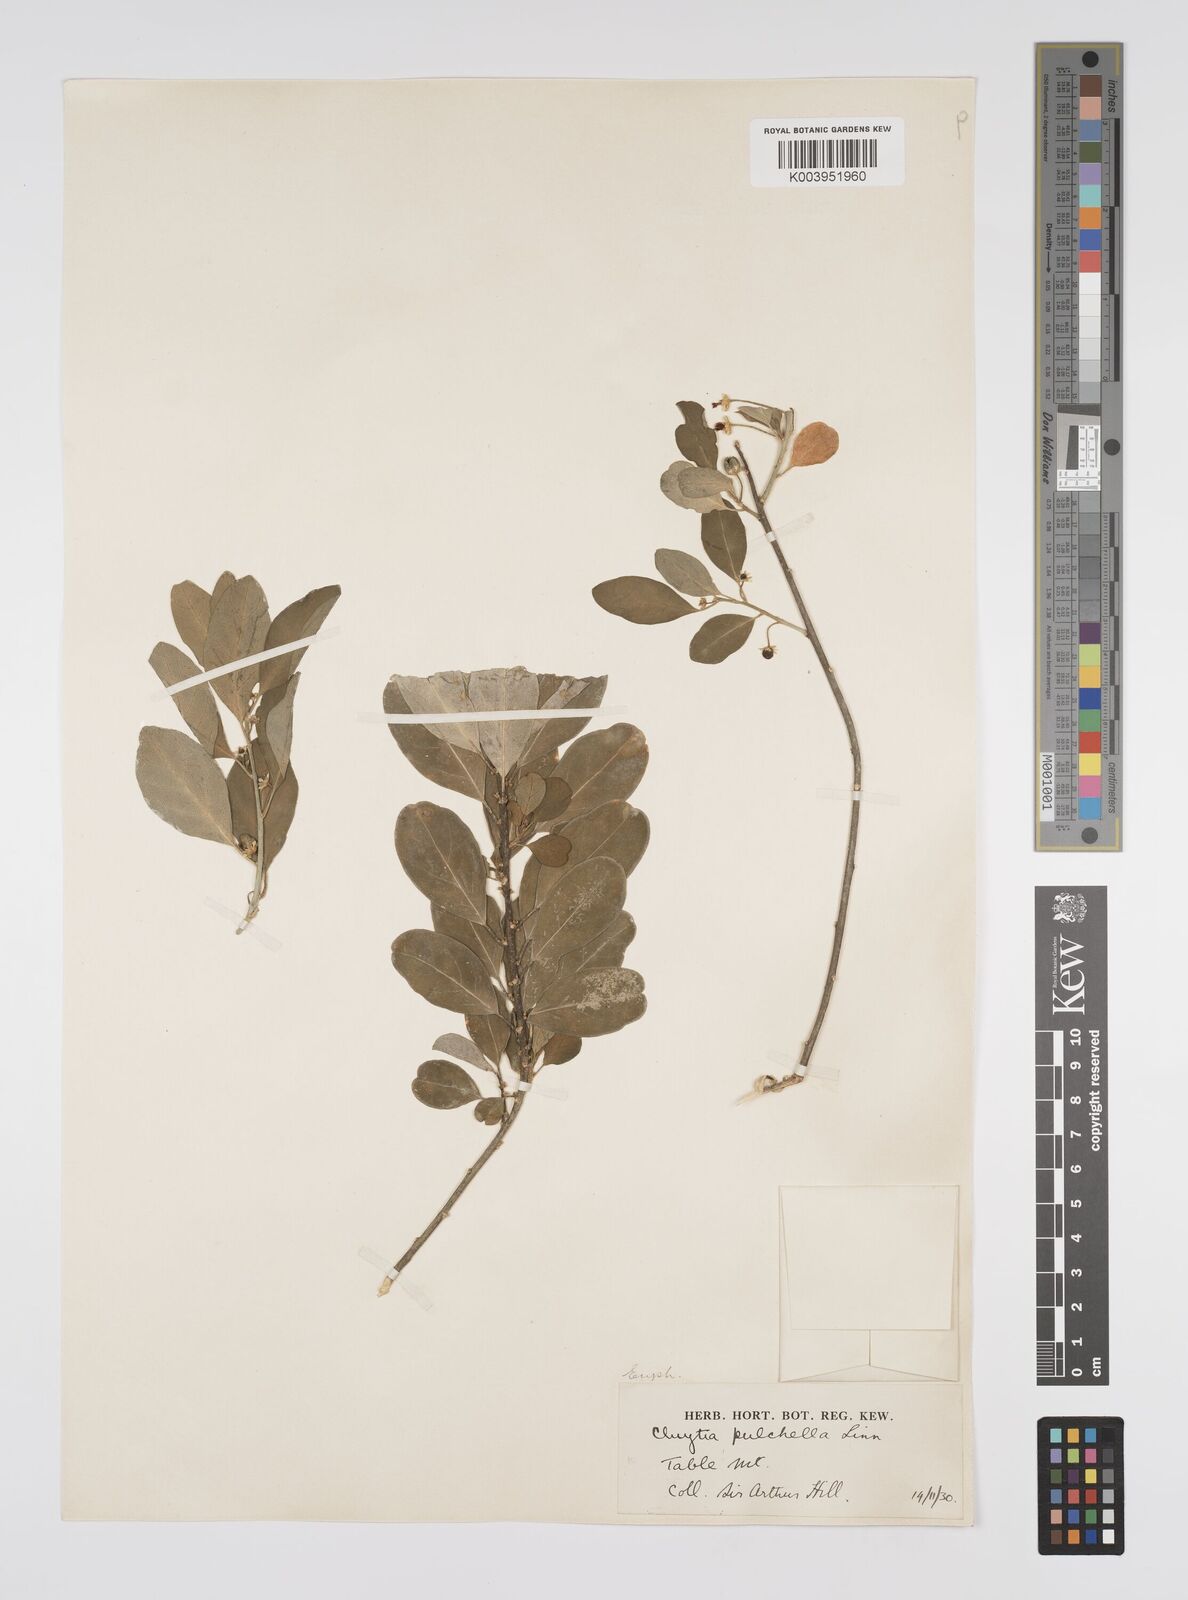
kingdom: Plantae
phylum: Tracheophyta
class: Magnoliopsida
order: Malpighiales
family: Peraceae
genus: Clutia
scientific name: Clutia pulchella
